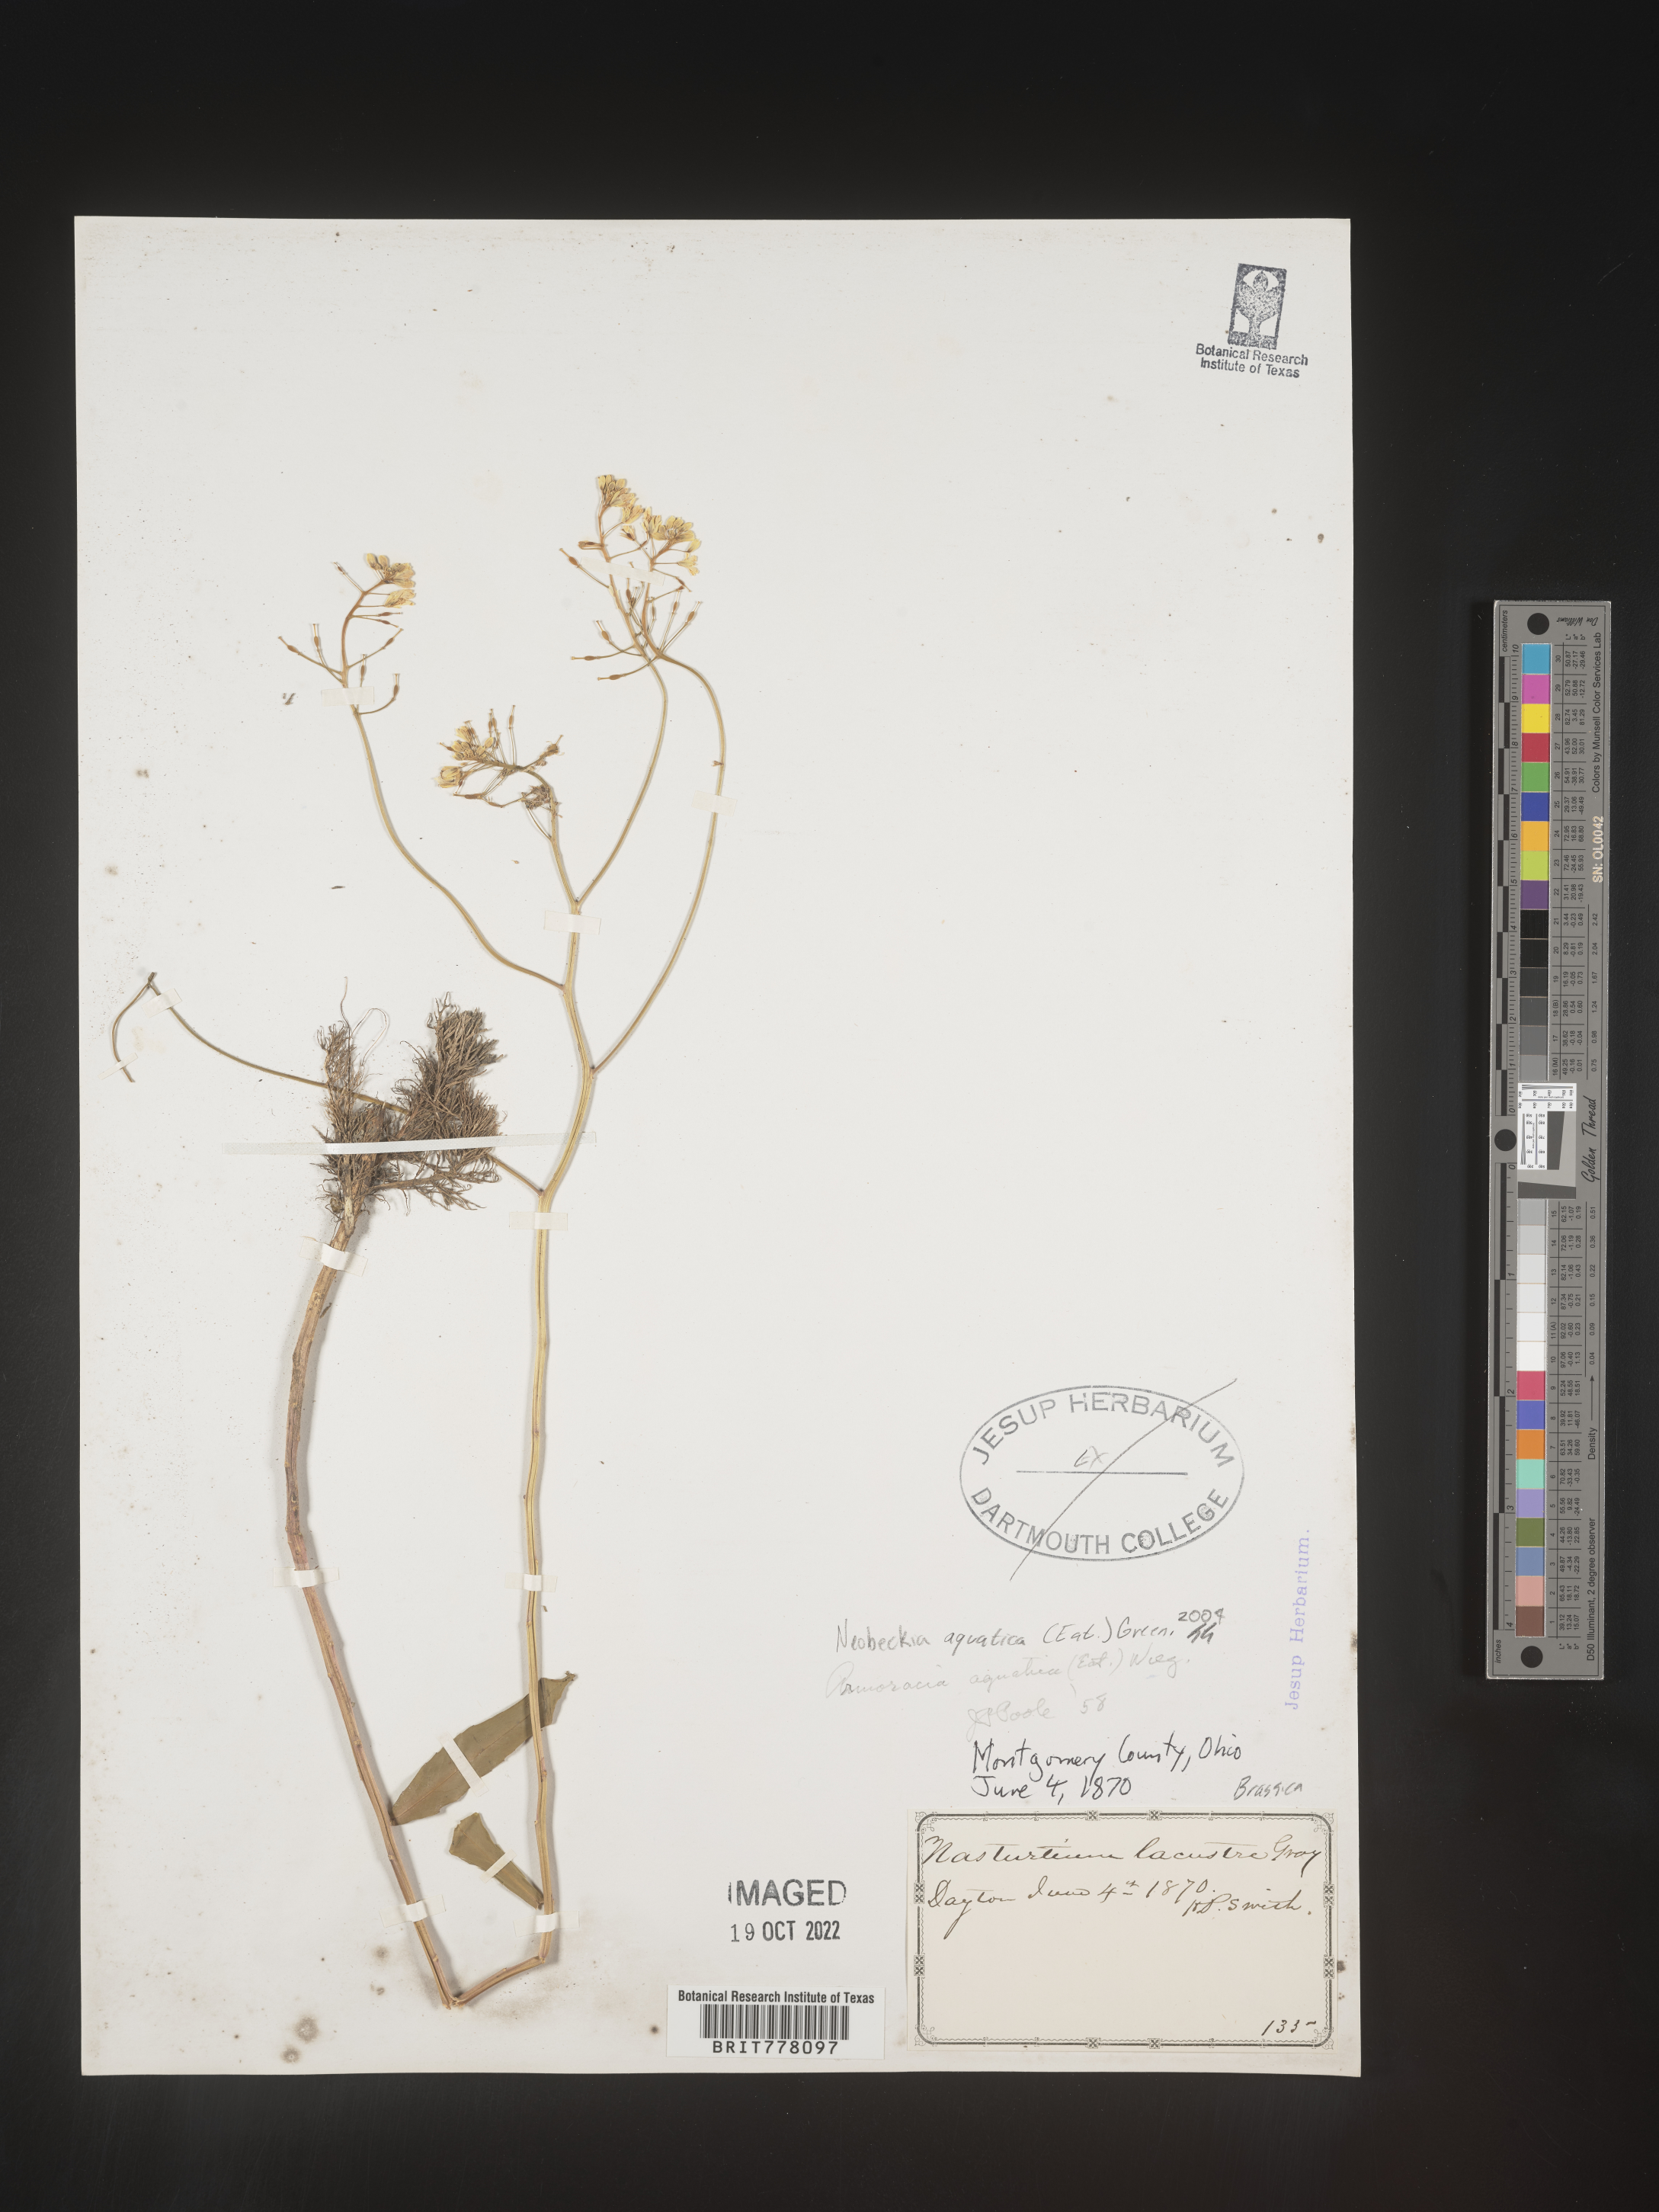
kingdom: Plantae
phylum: Tracheophyta
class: Magnoliopsida
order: Brassicales
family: Brassicaceae
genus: Rorippa
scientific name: Rorippa
